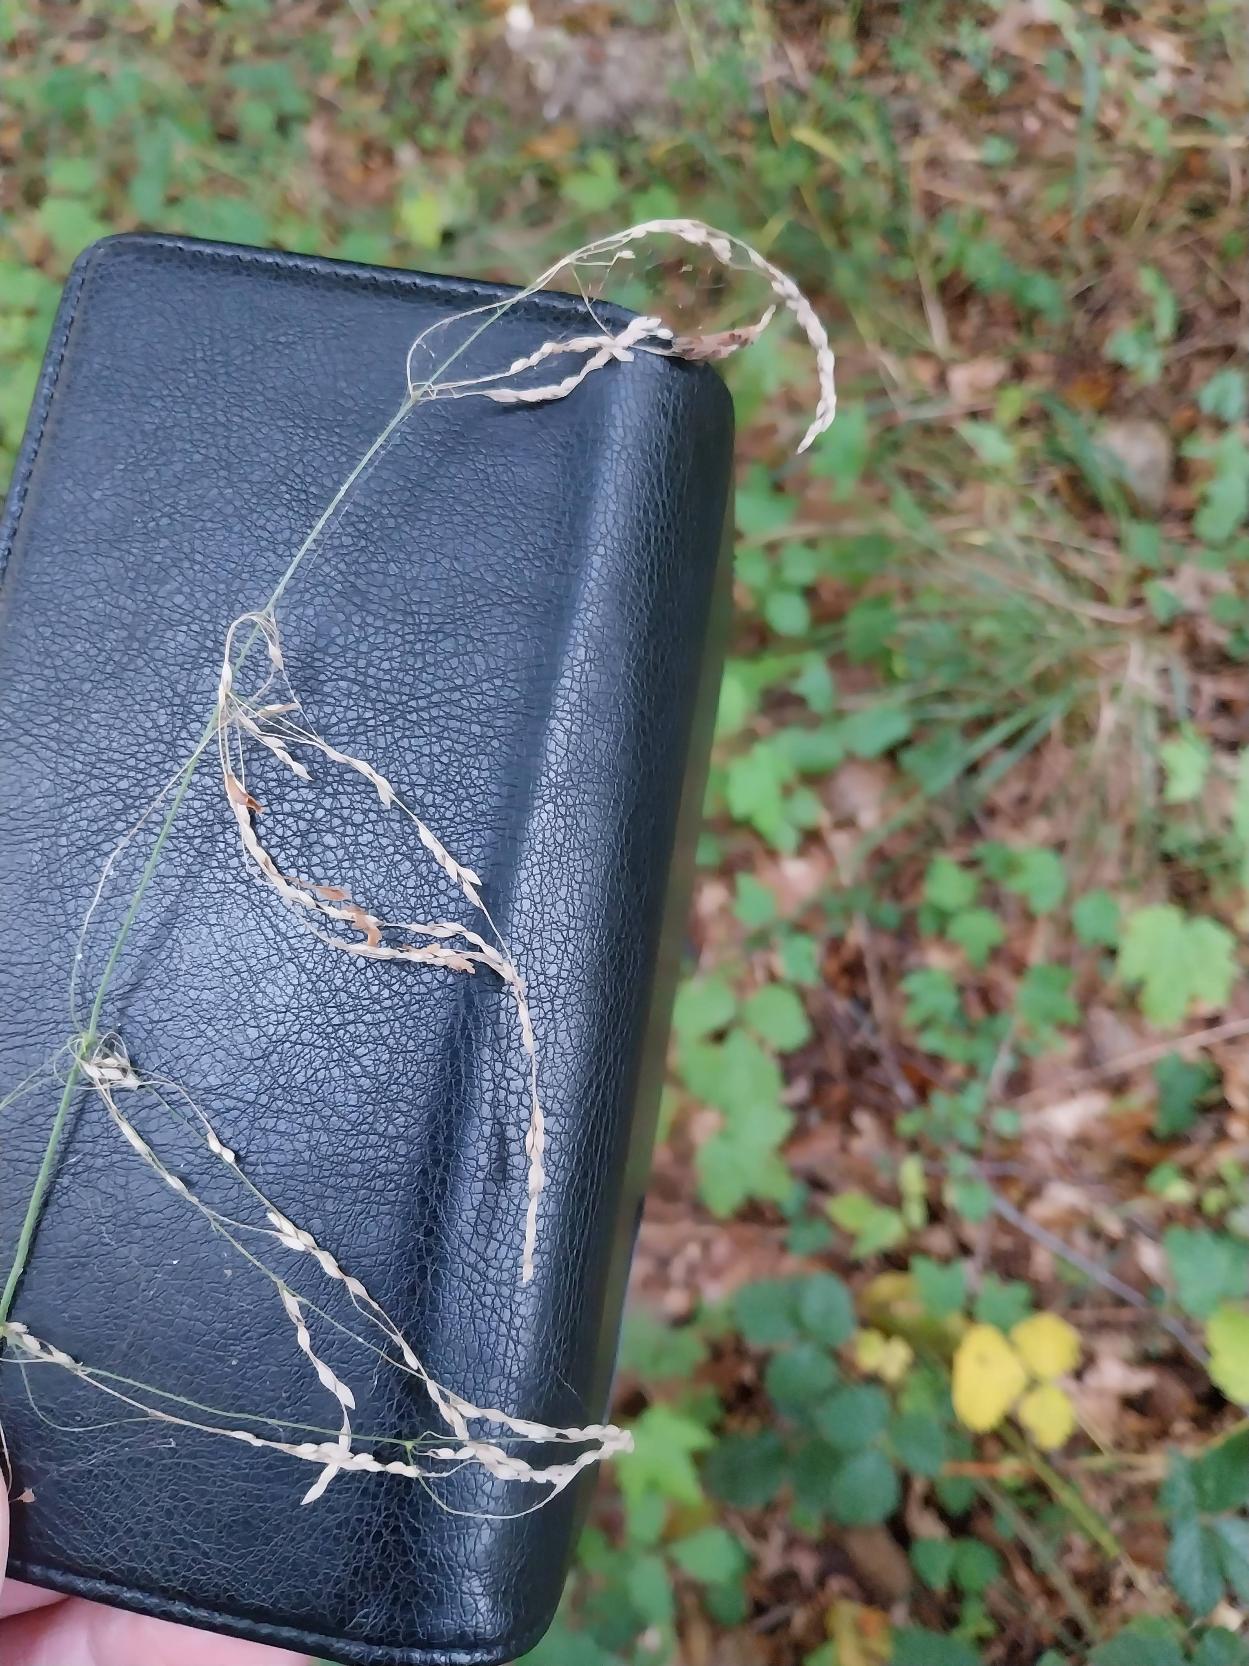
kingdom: Plantae
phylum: Tracheophyta
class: Liliopsida
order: Poales
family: Poaceae
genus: Milium
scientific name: Milium effusum
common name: Miliegræs
